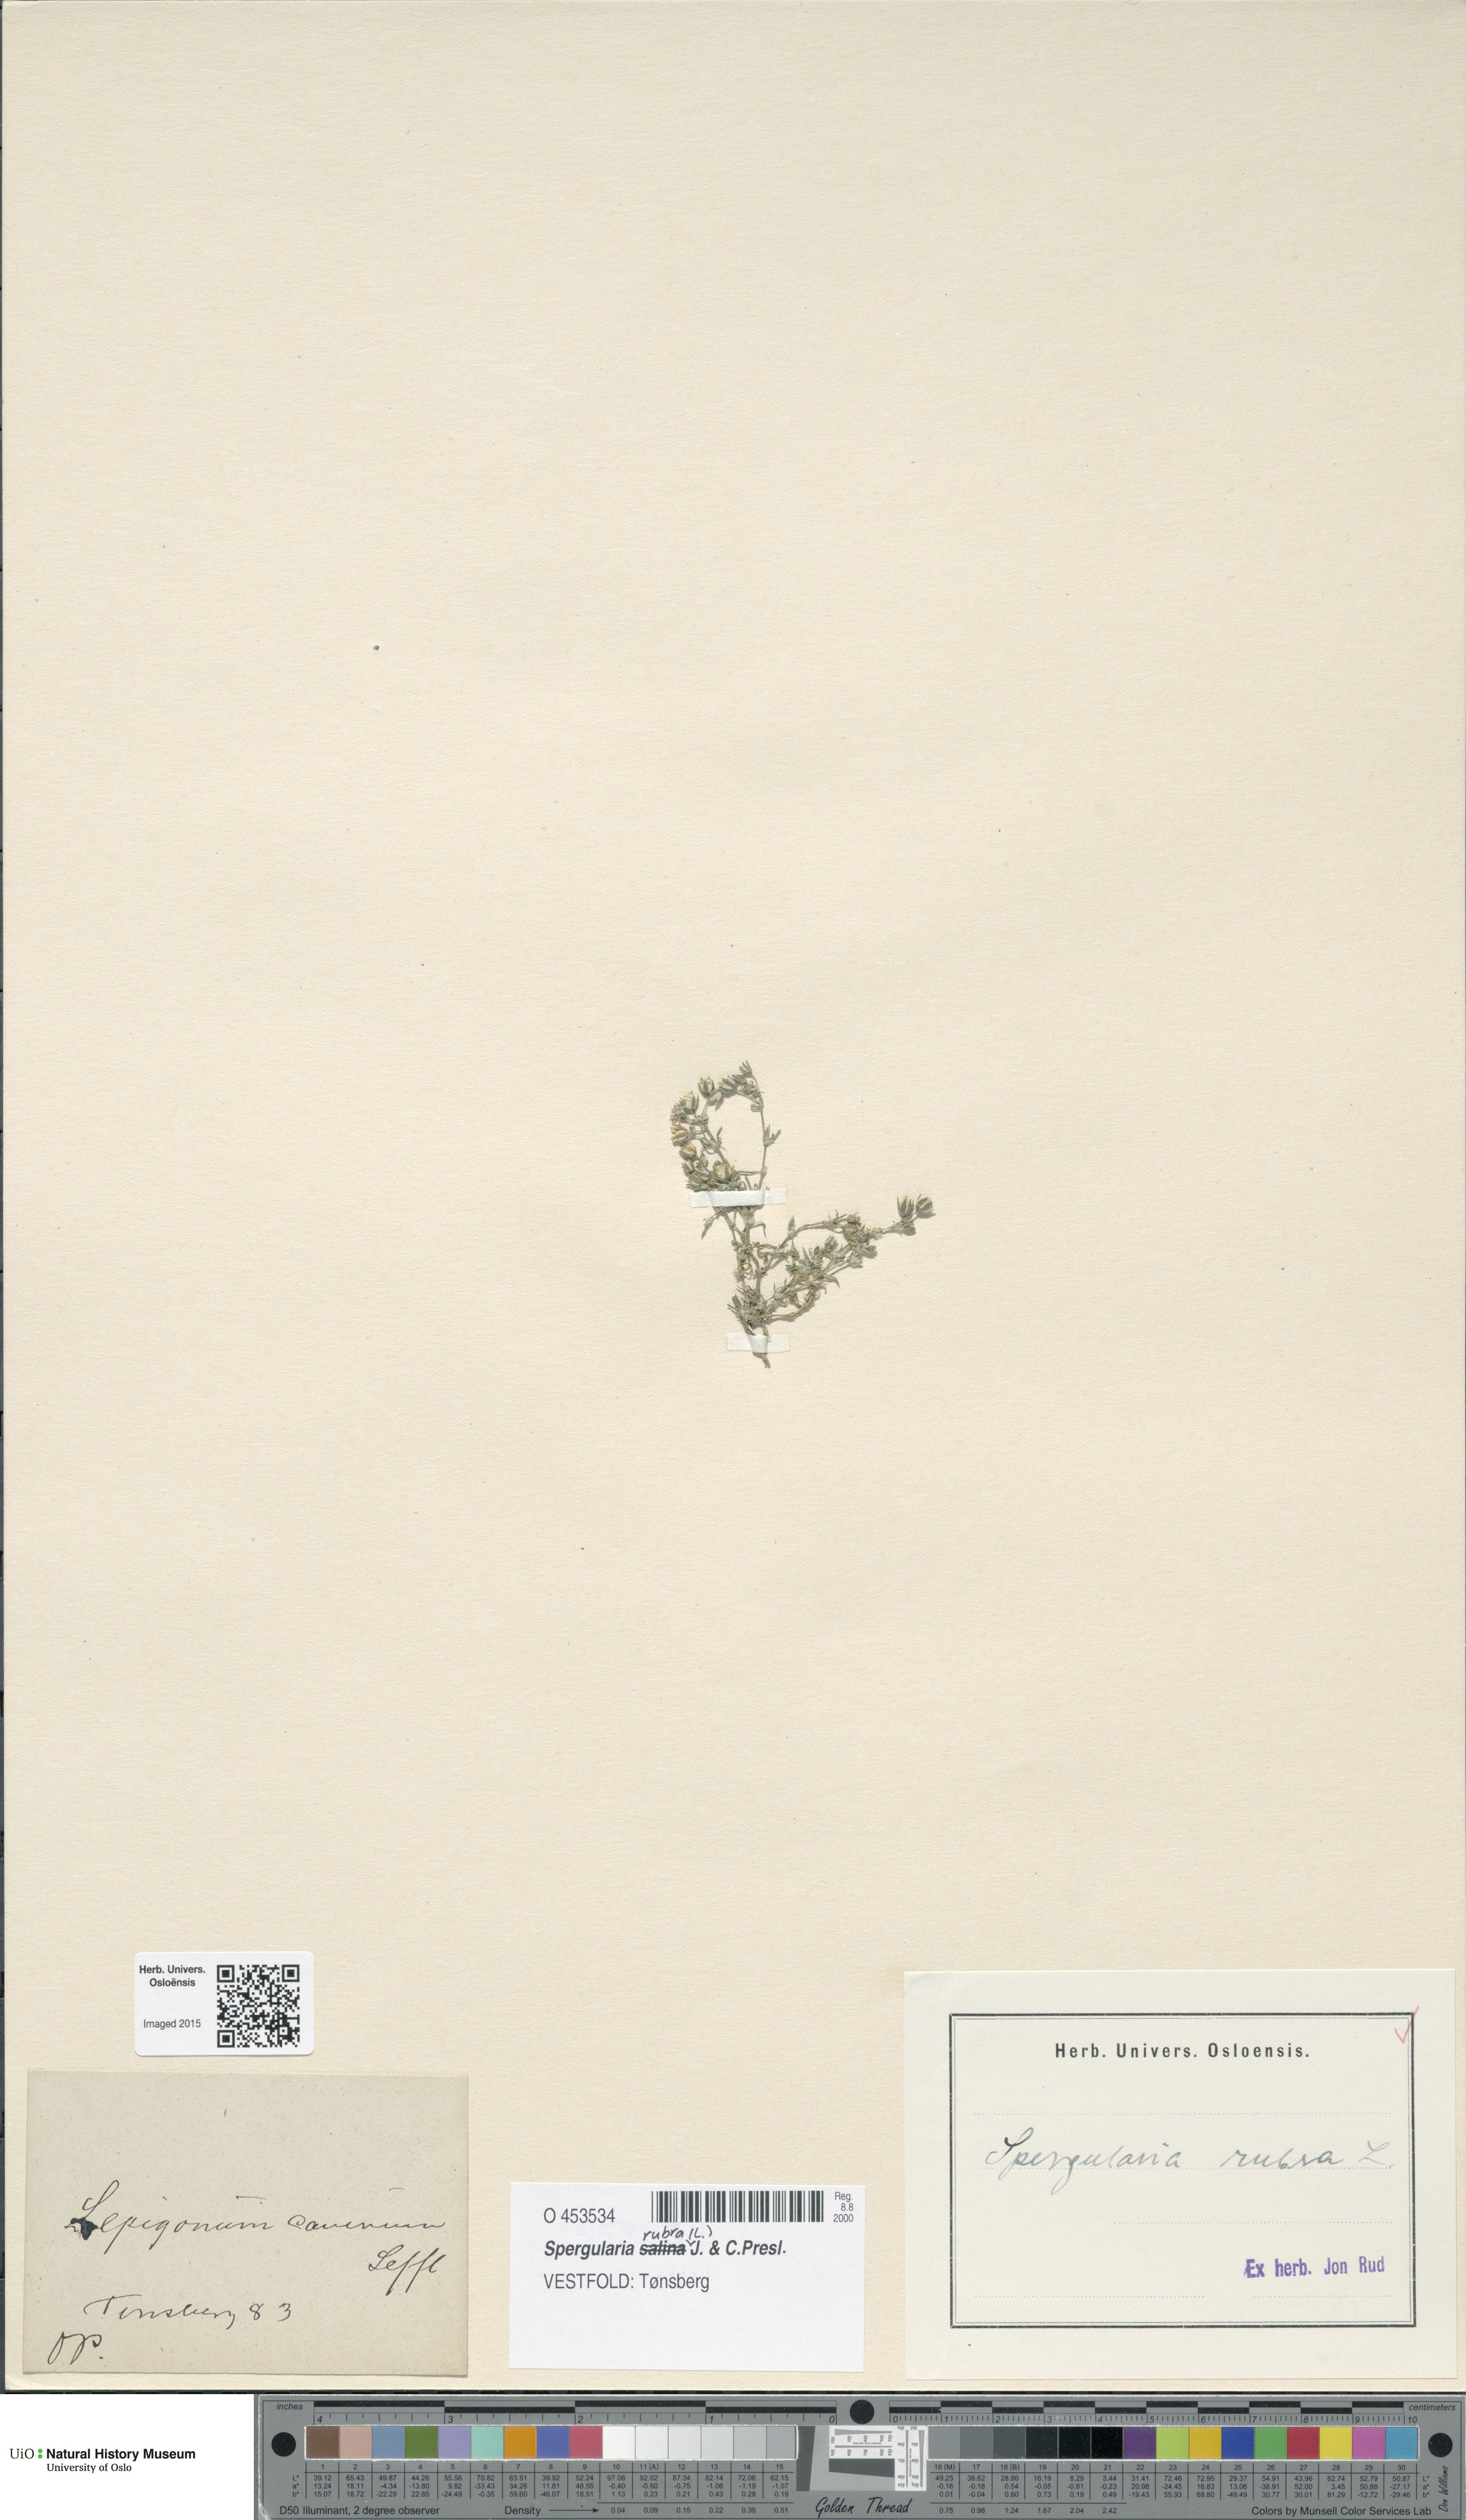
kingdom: Plantae
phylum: Tracheophyta
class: Magnoliopsida
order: Caryophyllales
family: Caryophyllaceae
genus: Spergularia
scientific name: Spergularia rubra
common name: Red sand-spurrey
